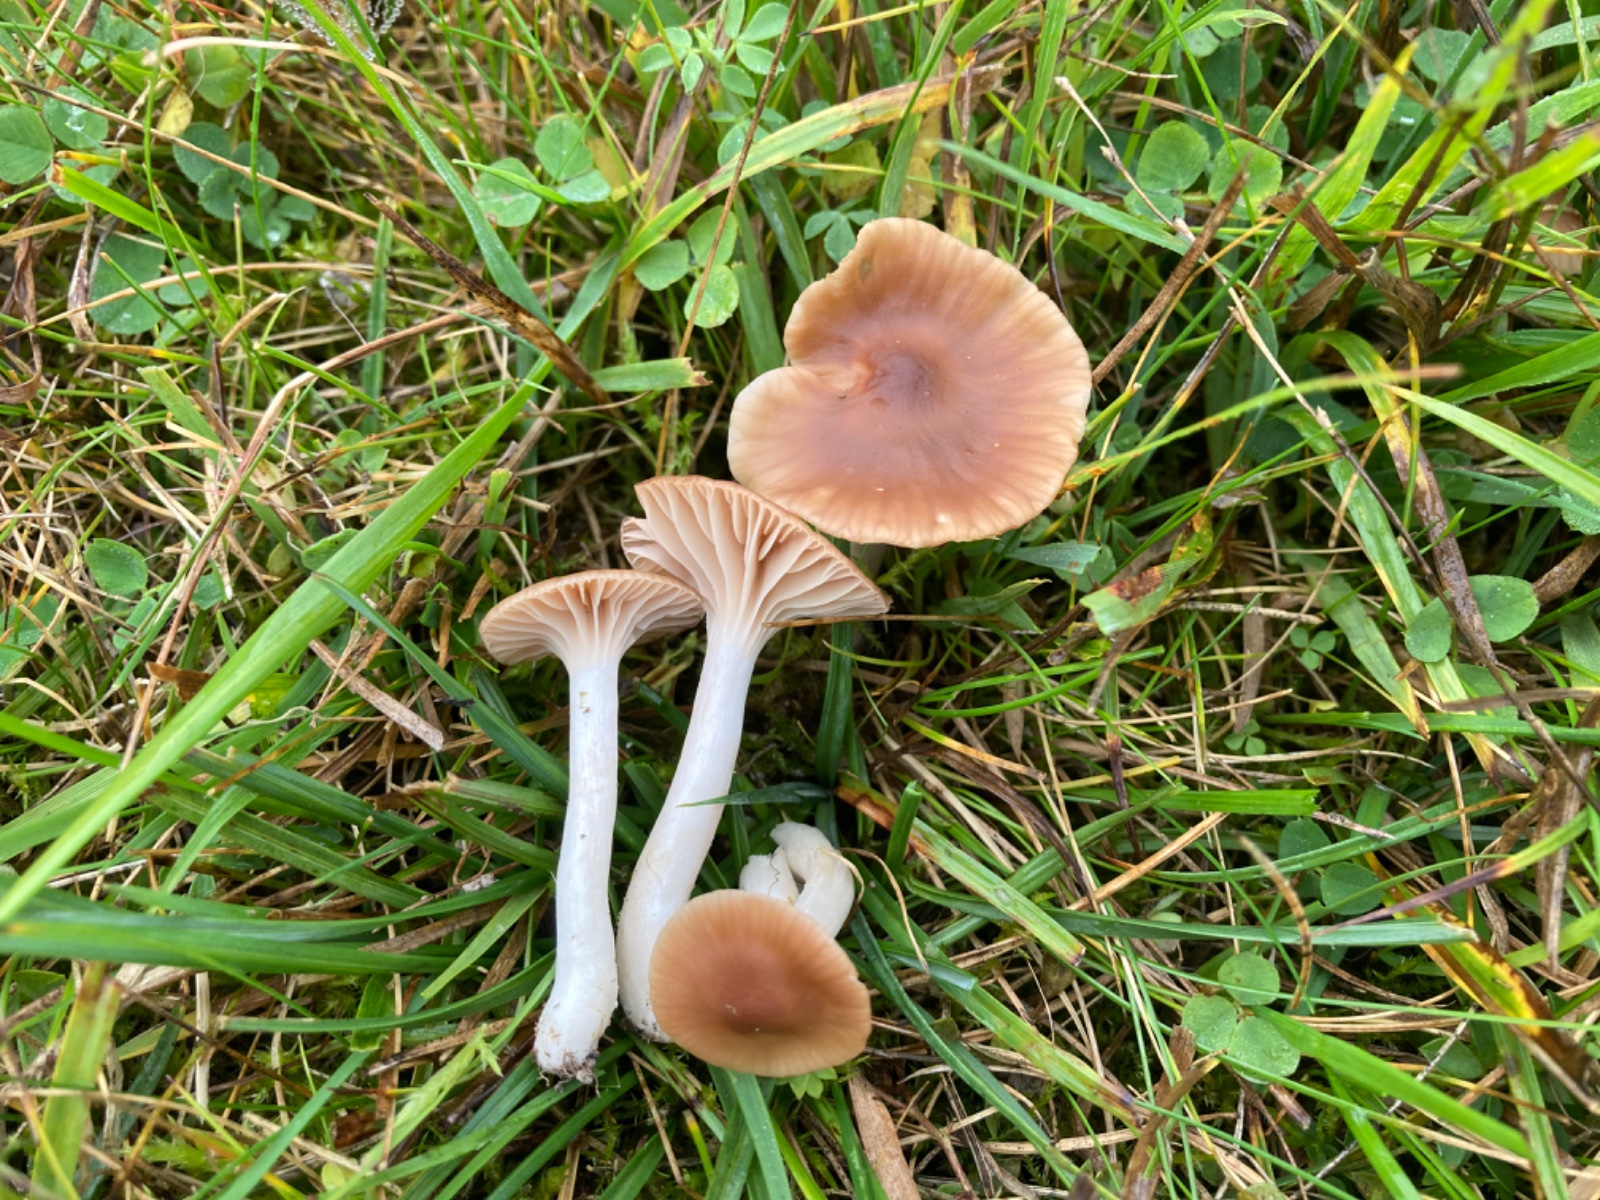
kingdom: Fungi
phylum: Basidiomycota
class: Agaricomycetes
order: Agaricales
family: Hygrophoraceae
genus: Cuphophyllus
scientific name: Cuphophyllus colemannianus
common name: rødbrun vokshat
